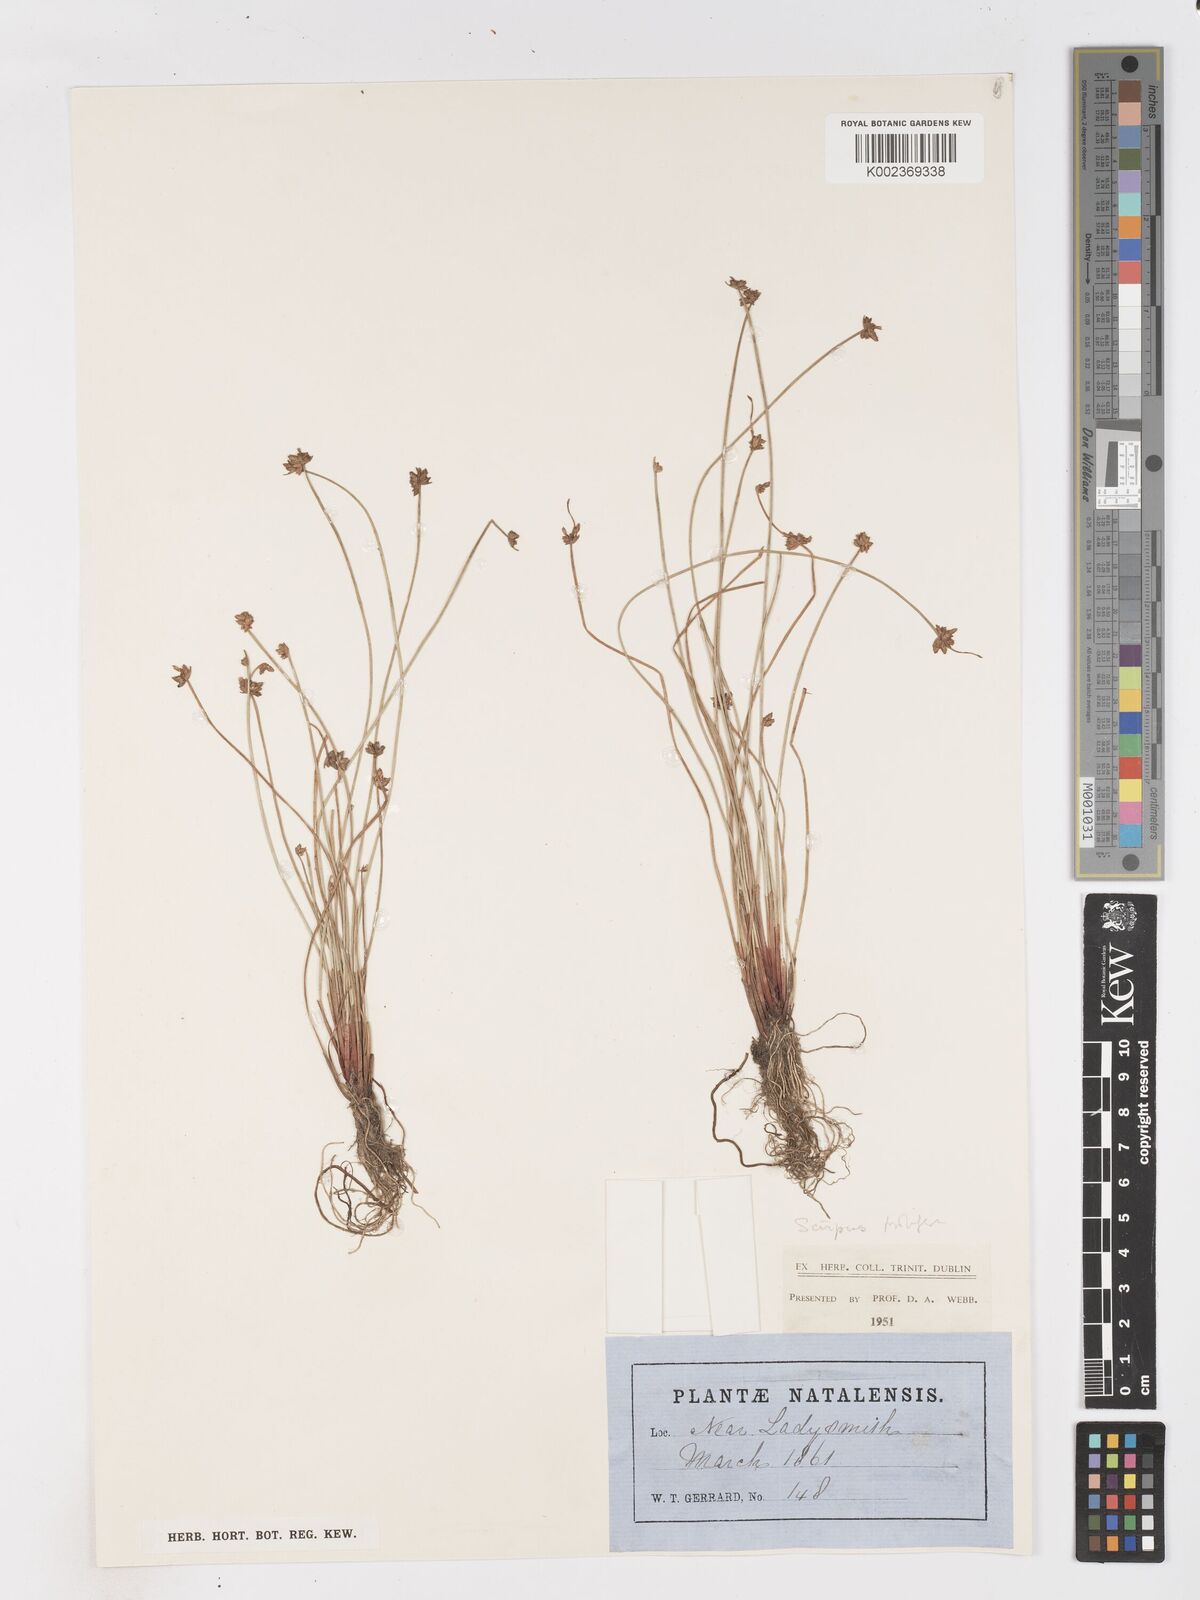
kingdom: Plantae
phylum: Tracheophyta
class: Liliopsida
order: Poales
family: Cyperaceae
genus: Isolepis
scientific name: Isolepis prolifera
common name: Proliferating bulrush
